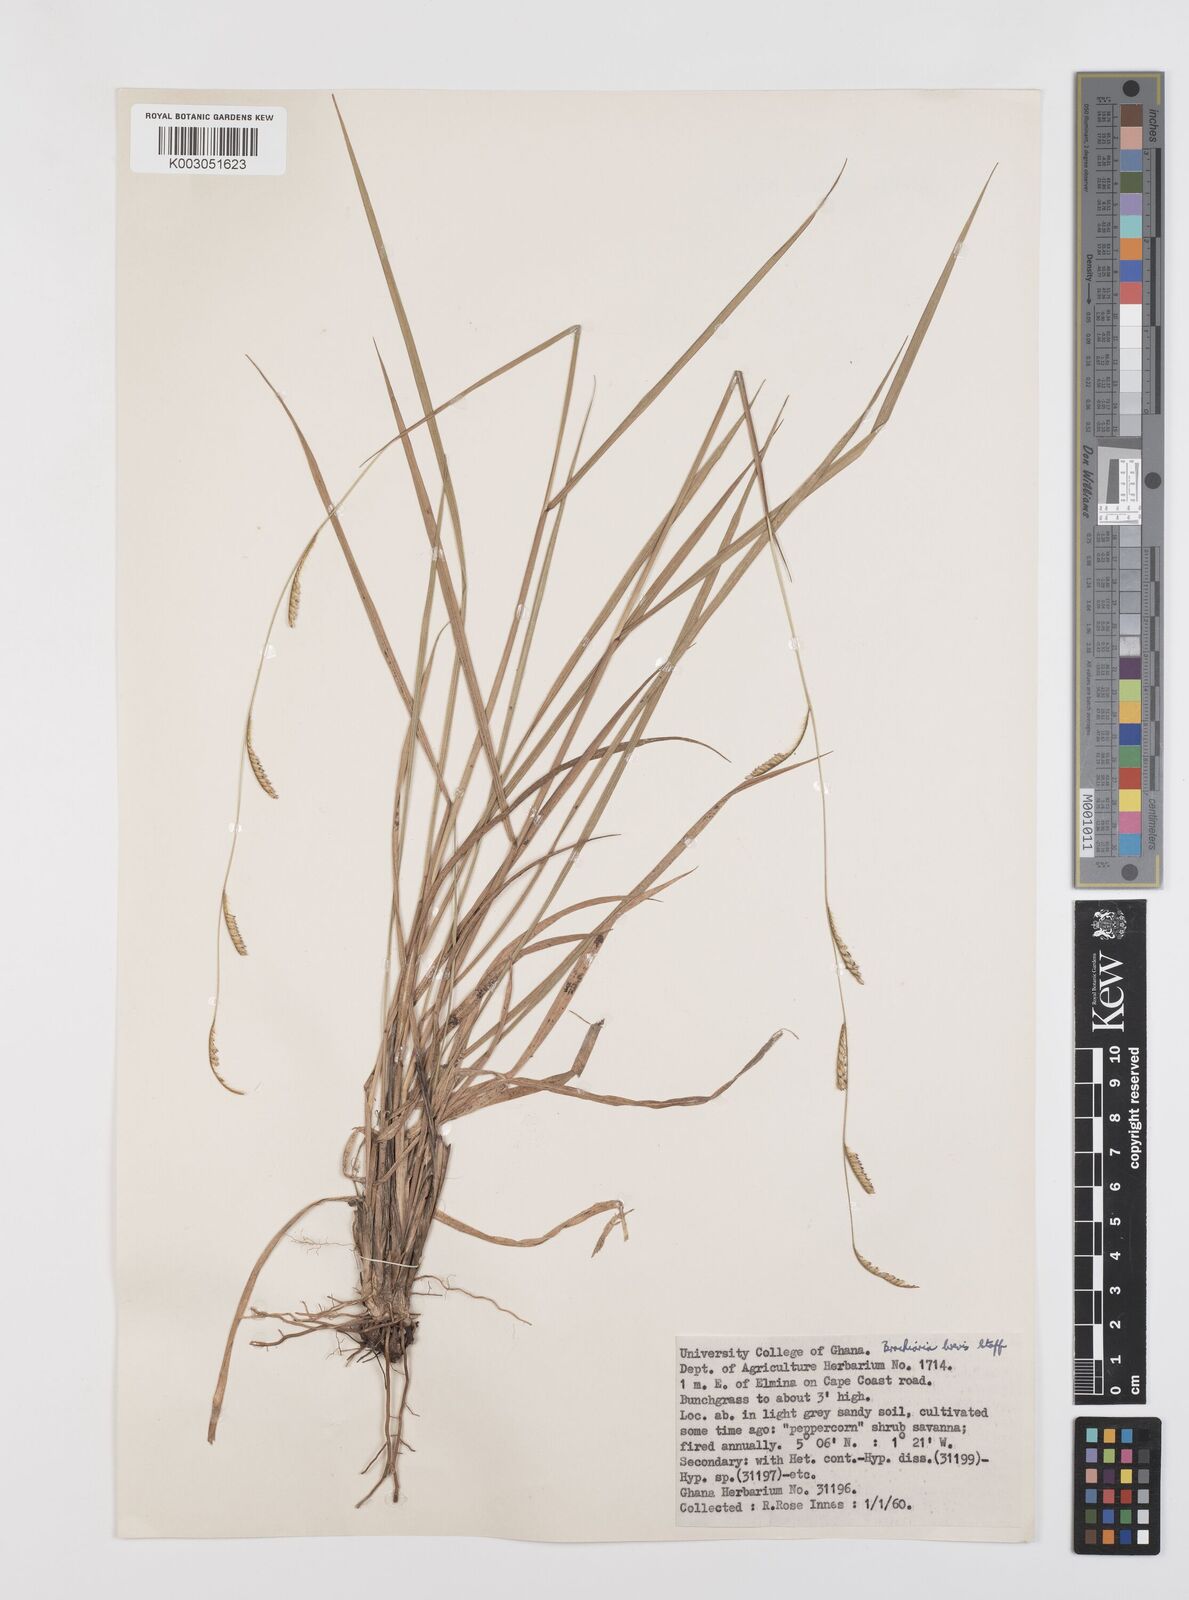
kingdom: Plantae
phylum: Tracheophyta
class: Liliopsida
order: Poales
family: Poaceae
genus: Urochloa
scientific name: Urochloa jubata
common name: Buffalograss
